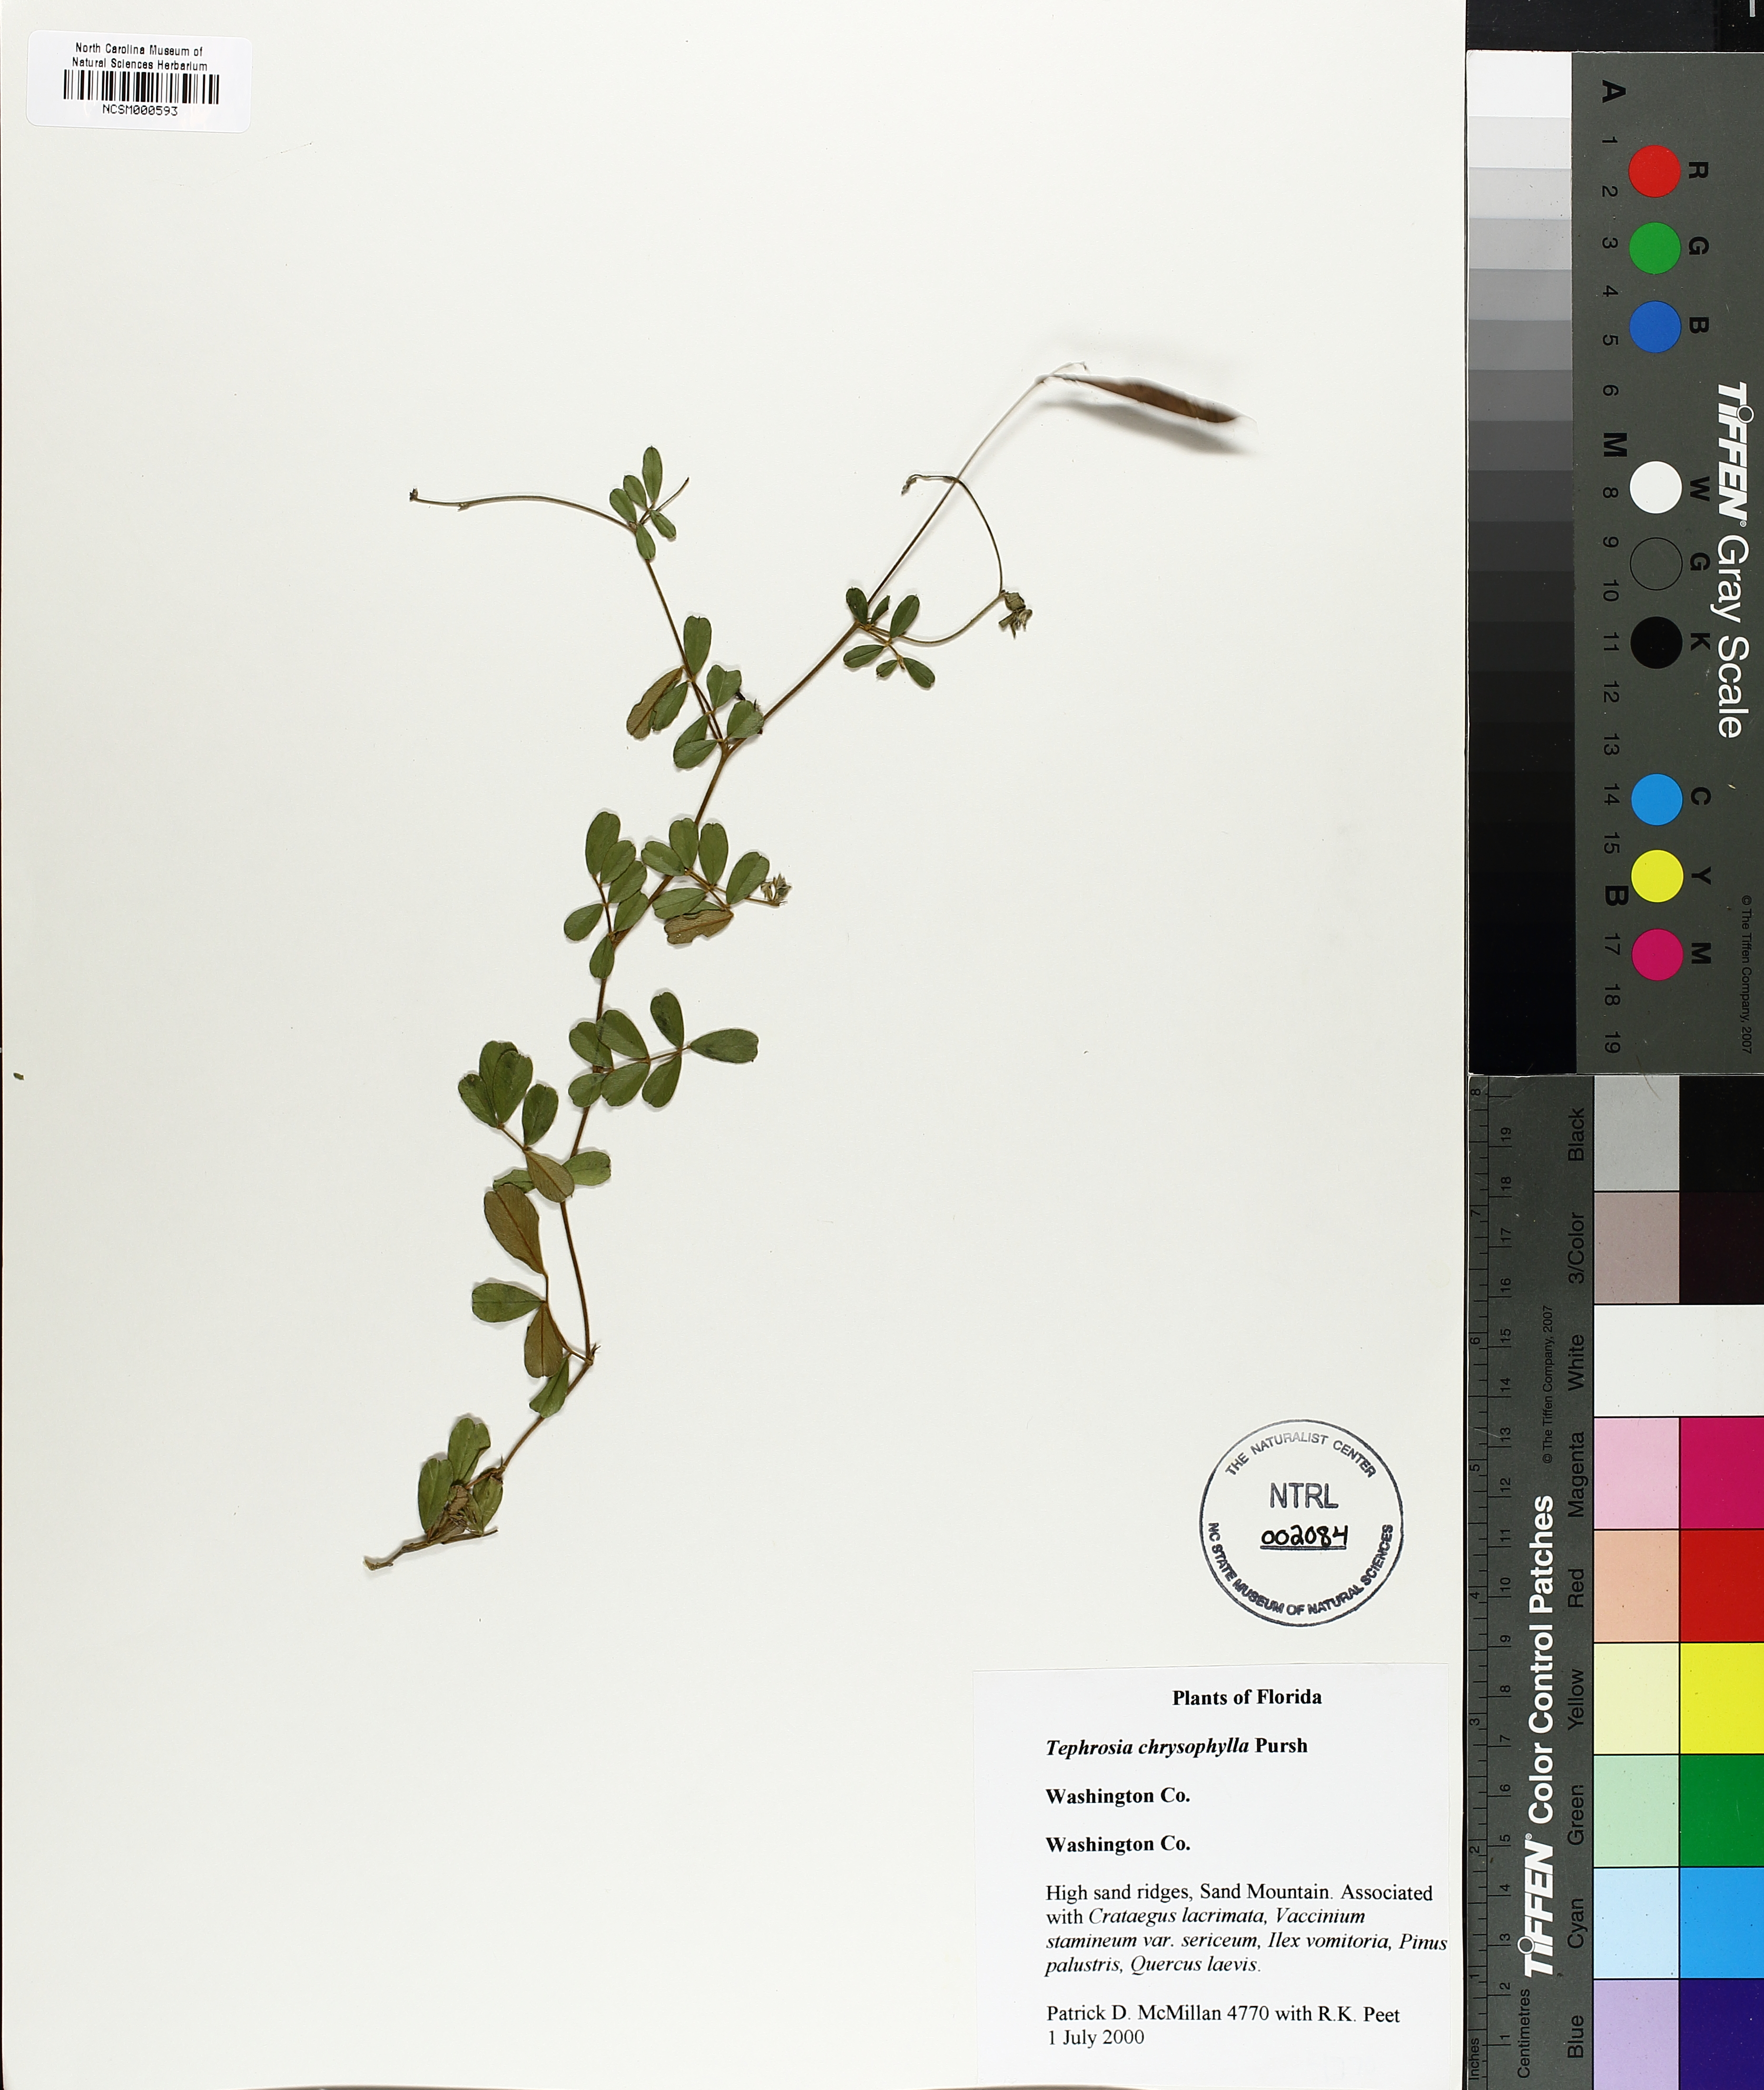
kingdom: Plantae
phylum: Tracheophyta
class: Magnoliopsida
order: Fabales
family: Fabaceae
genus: Tephrosia
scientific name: Tephrosia chrysophylla
